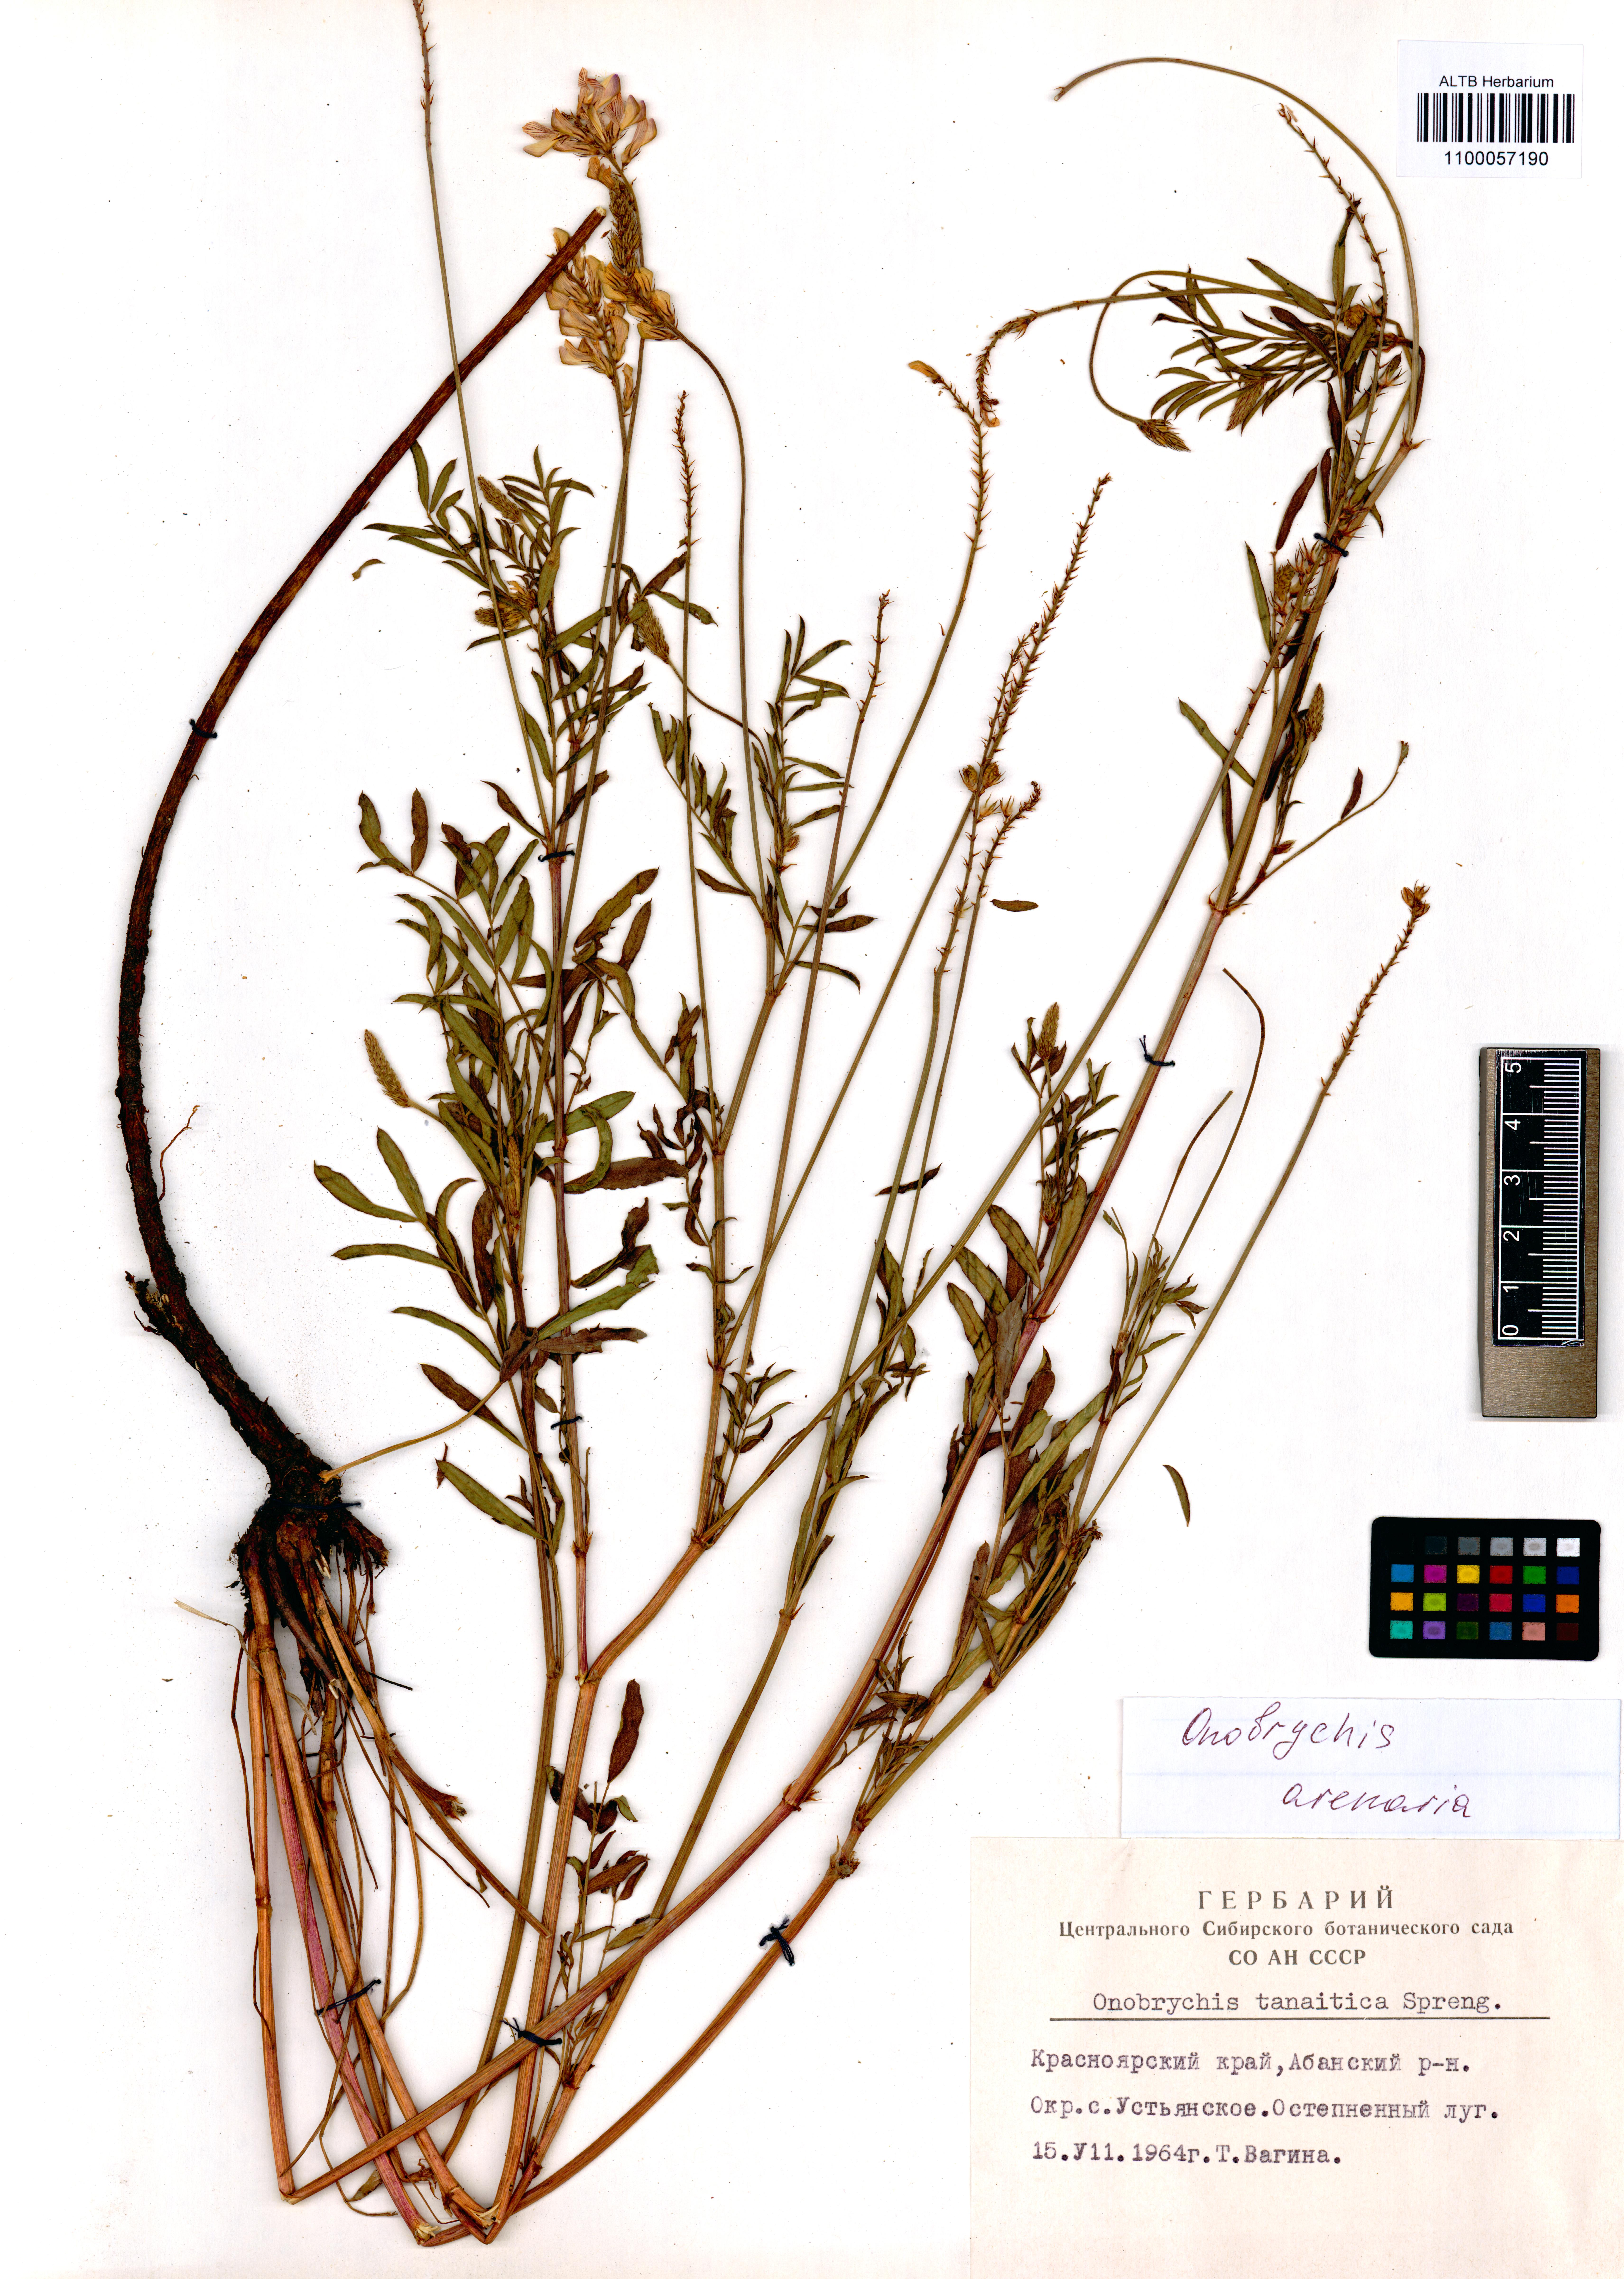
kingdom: Plantae
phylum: Tracheophyta
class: Magnoliopsida
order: Fabales
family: Fabaceae
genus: Onobrychis
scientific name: Onobrychis arenaria
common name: Sand esparcet
